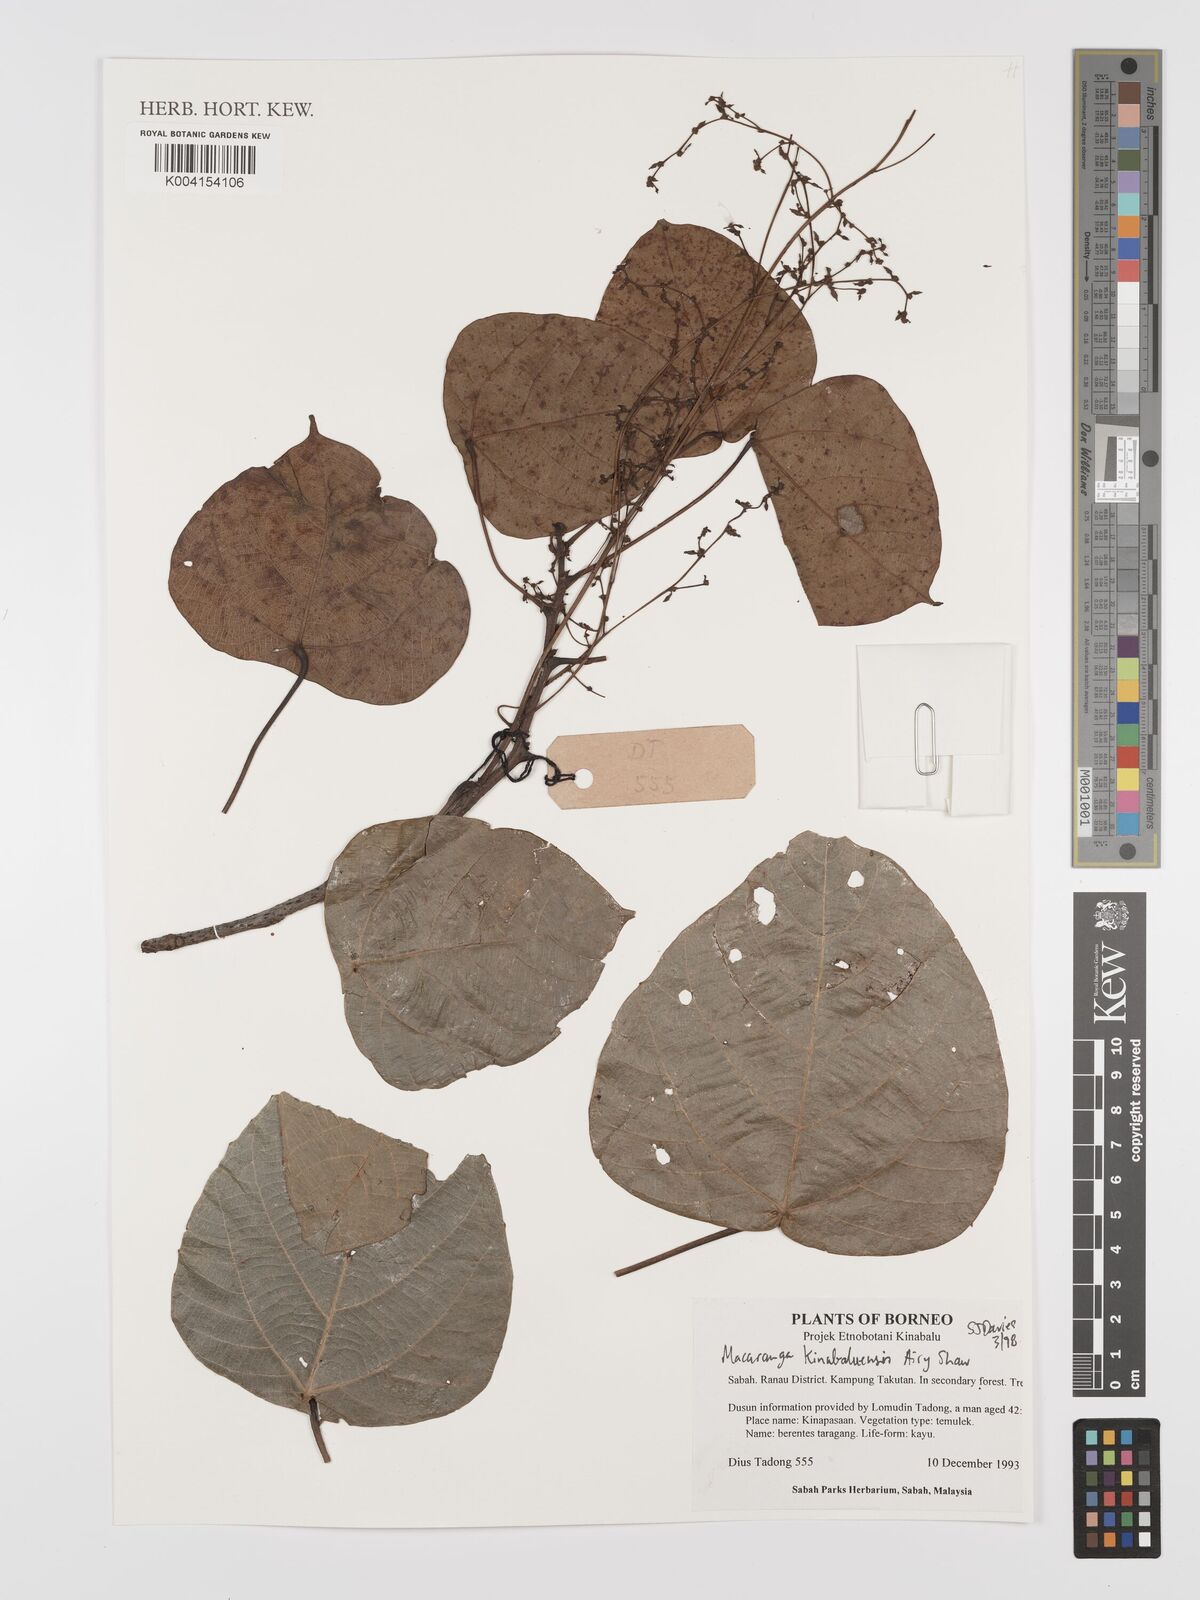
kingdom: Plantae
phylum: Tracheophyta
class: Magnoliopsida
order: Malpighiales
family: Euphorbiaceae
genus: Macaranga
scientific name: Macaranga kinabaluensis
